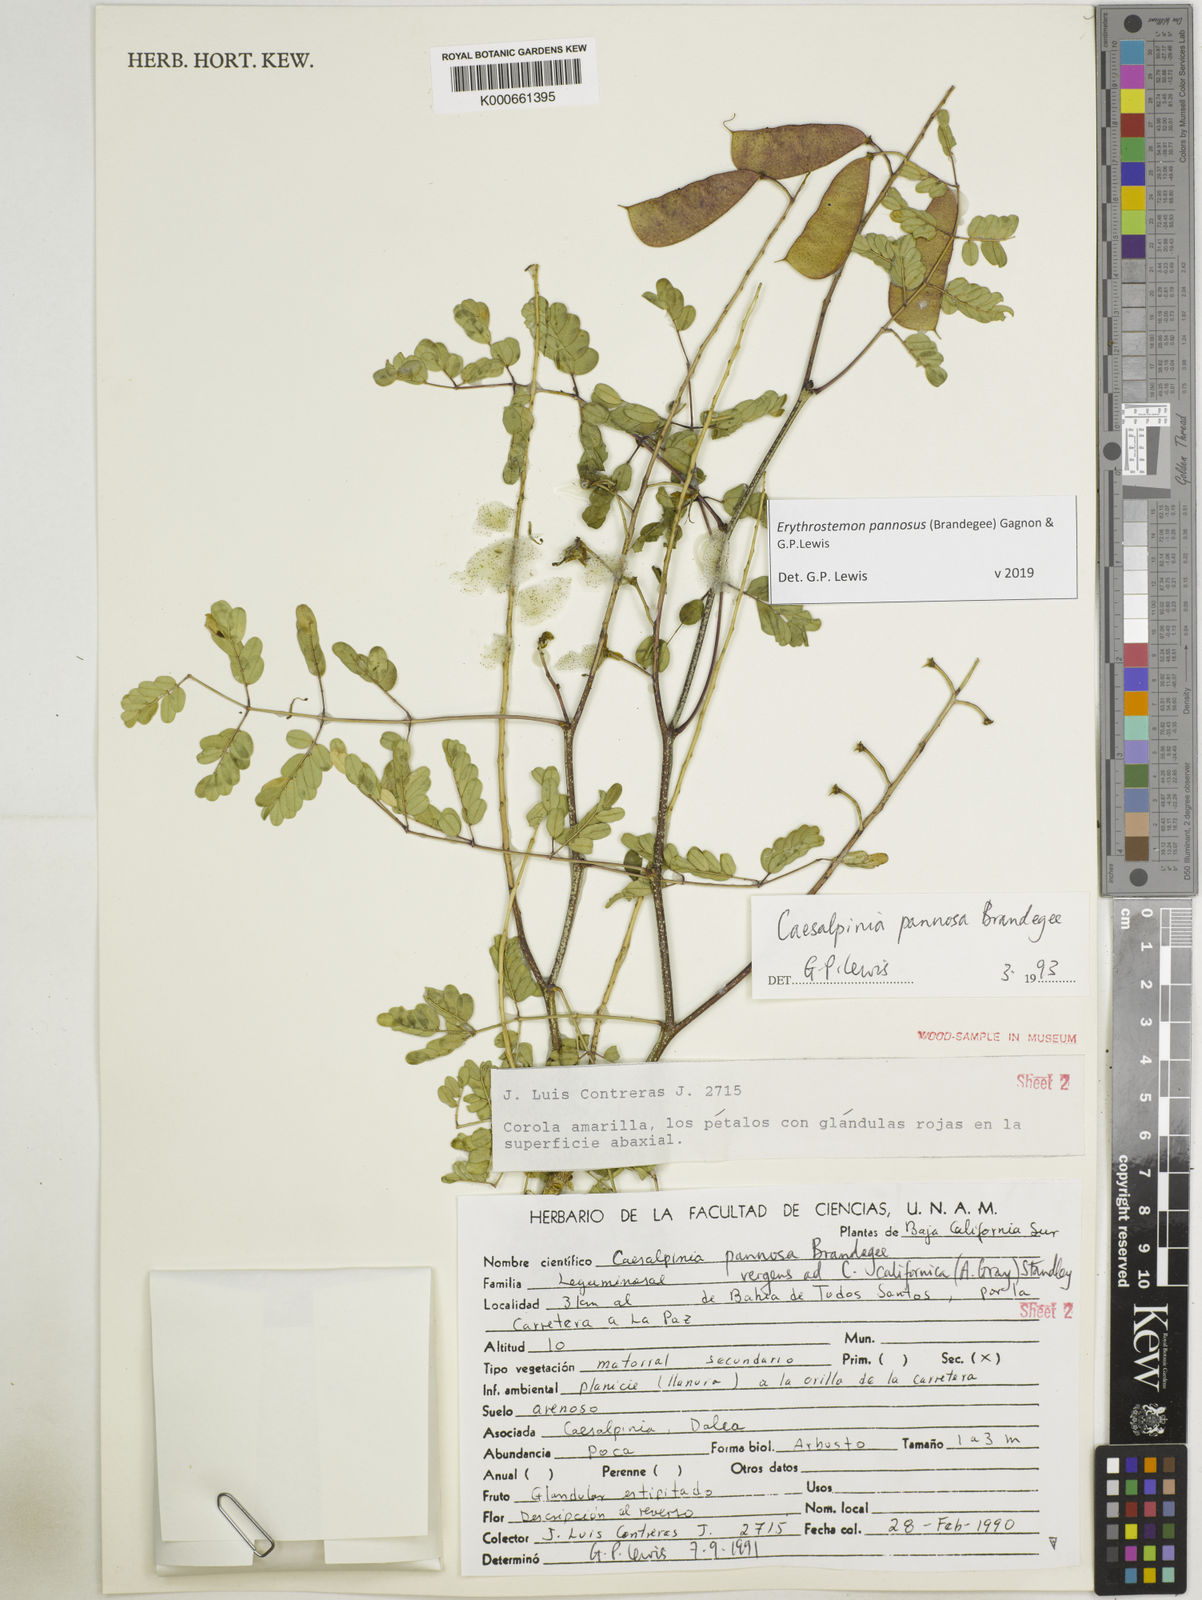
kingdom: Plantae
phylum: Tracheophyta
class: Magnoliopsida
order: Fabales
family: Fabaceae
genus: Erythrostemon
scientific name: Erythrostemon pannosus
